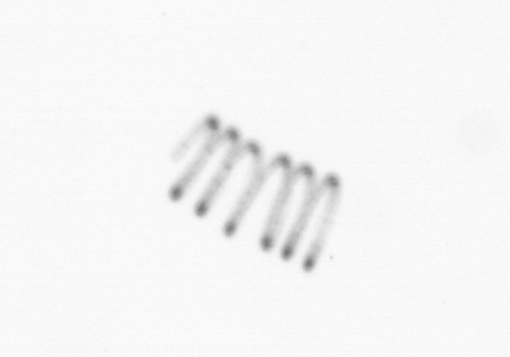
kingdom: Chromista
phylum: Ochrophyta
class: Bacillariophyceae
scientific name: Bacillariophyceae
